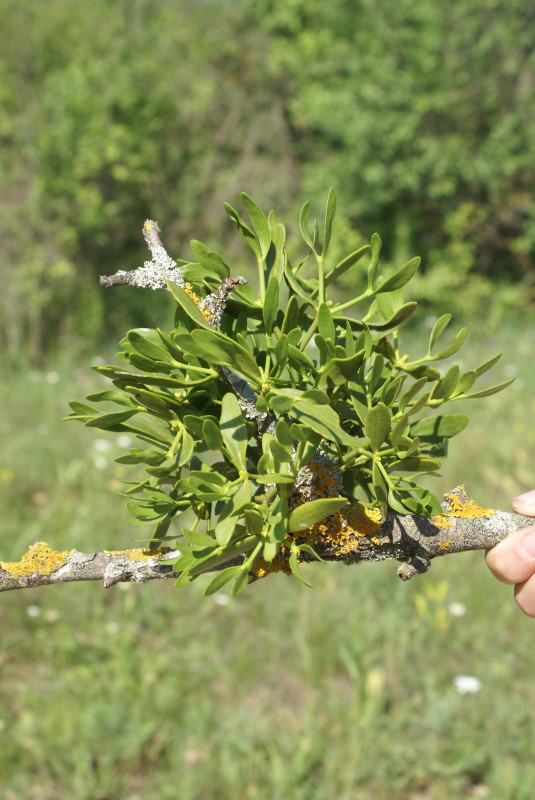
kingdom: Plantae
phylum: Tracheophyta
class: Magnoliopsida
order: Santalales
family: Viscaceae
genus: Viscum
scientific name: Viscum album
